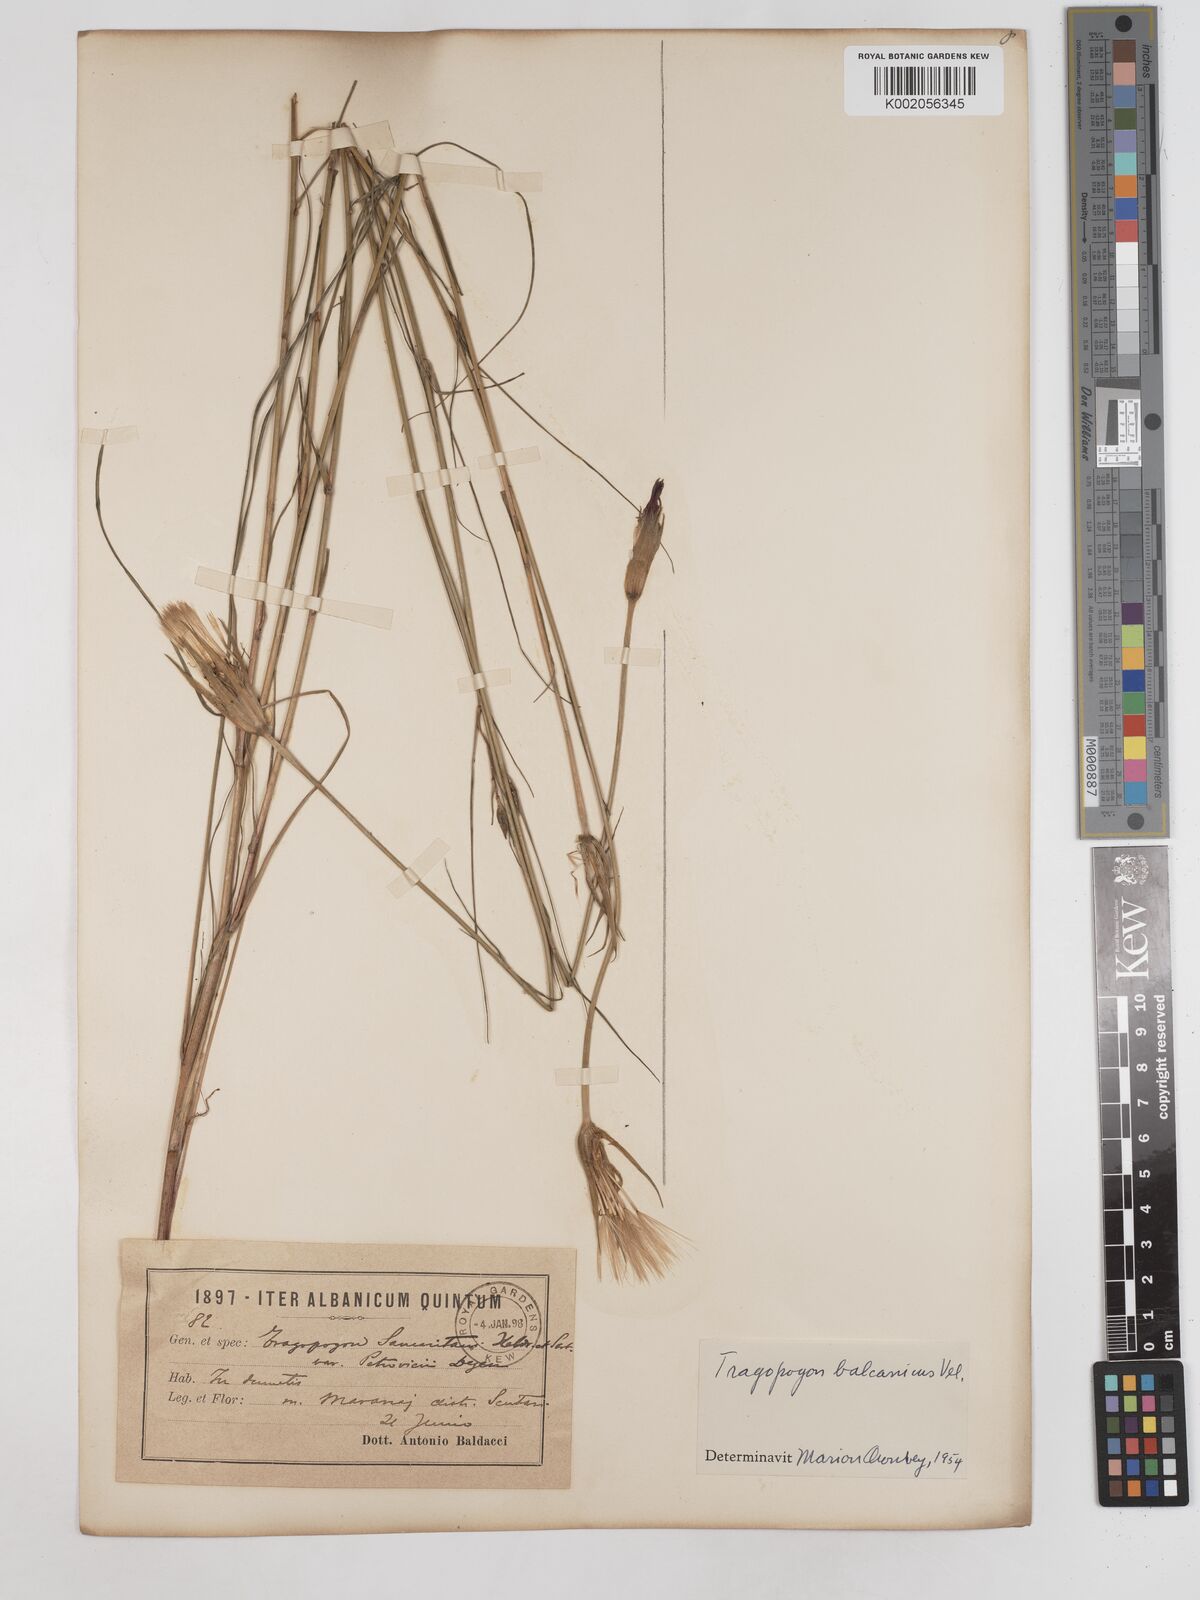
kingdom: Plantae
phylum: Tracheophyta
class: Magnoliopsida
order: Asterales
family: Asteraceae
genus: Tragopogon
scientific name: Tragopogon balcanicus
